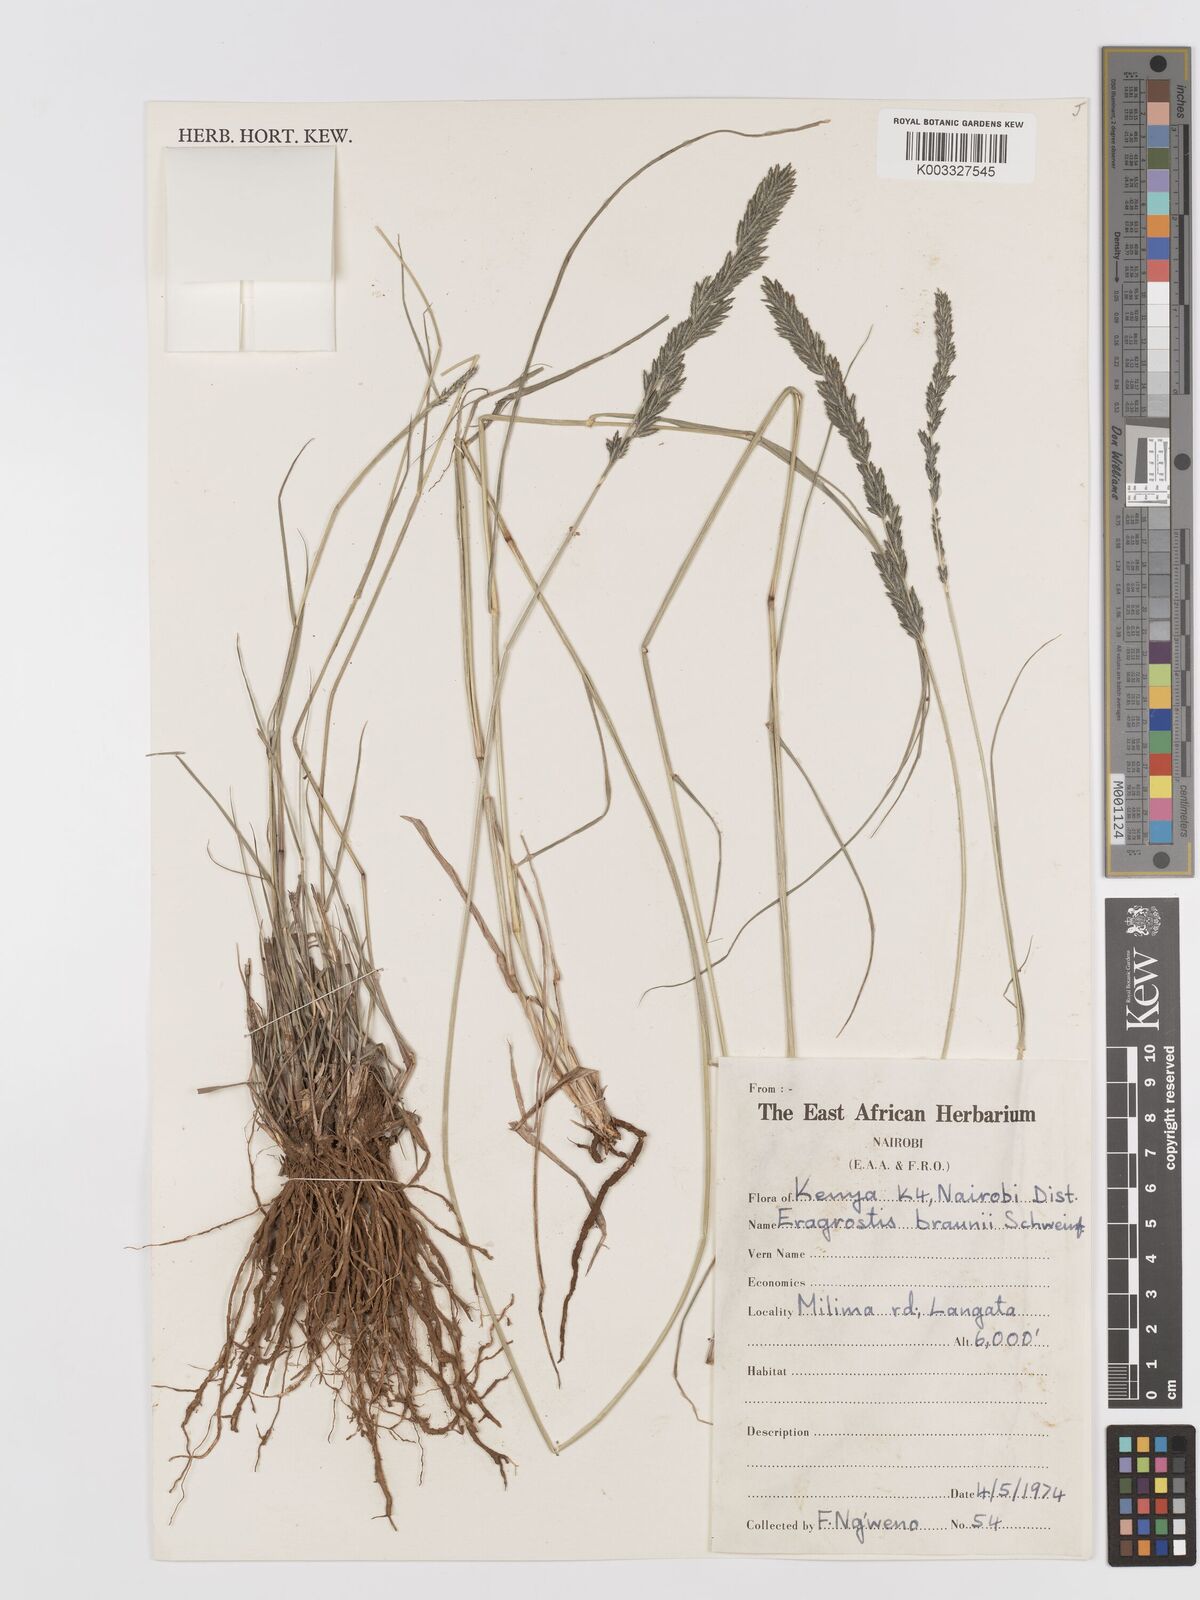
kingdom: Plantae
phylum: Tracheophyta
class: Liliopsida
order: Poales
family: Poaceae
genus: Eragrostis
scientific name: Eragrostis braunii
